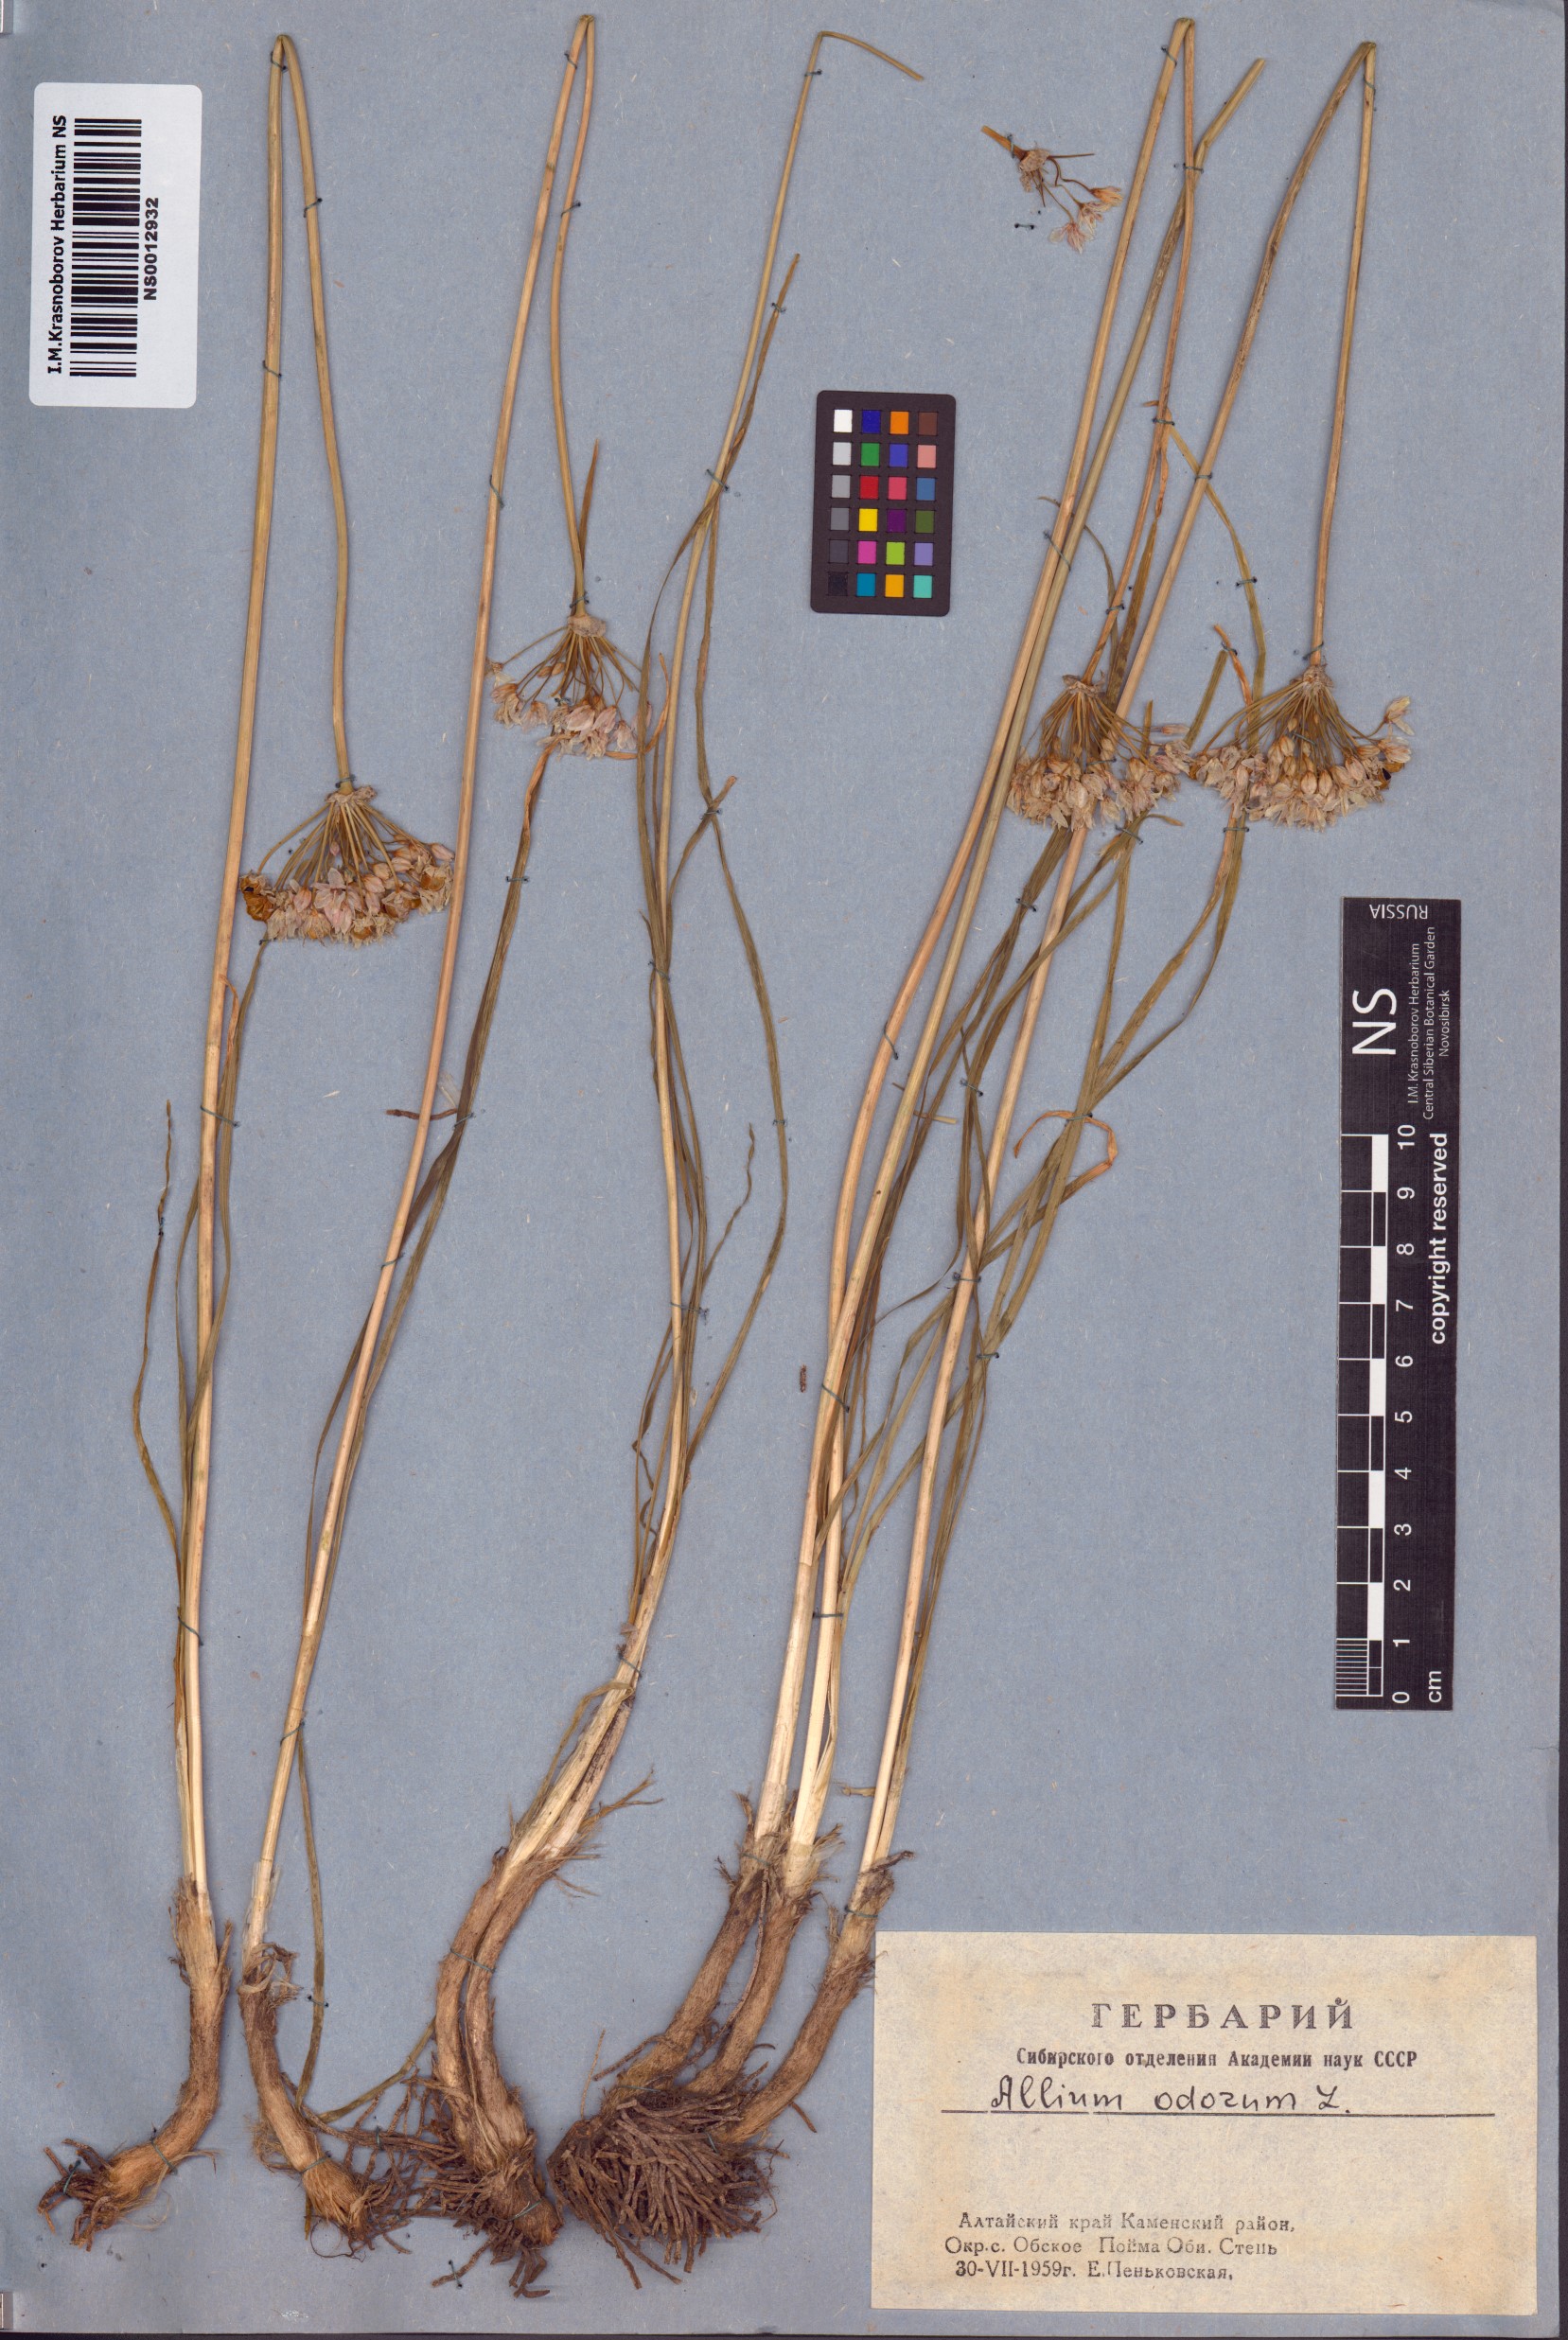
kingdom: Plantae
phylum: Tracheophyta
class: Liliopsida
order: Asparagales
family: Amaryllidaceae
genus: Allium
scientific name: Allium ramosum
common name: Fragrant garlic
